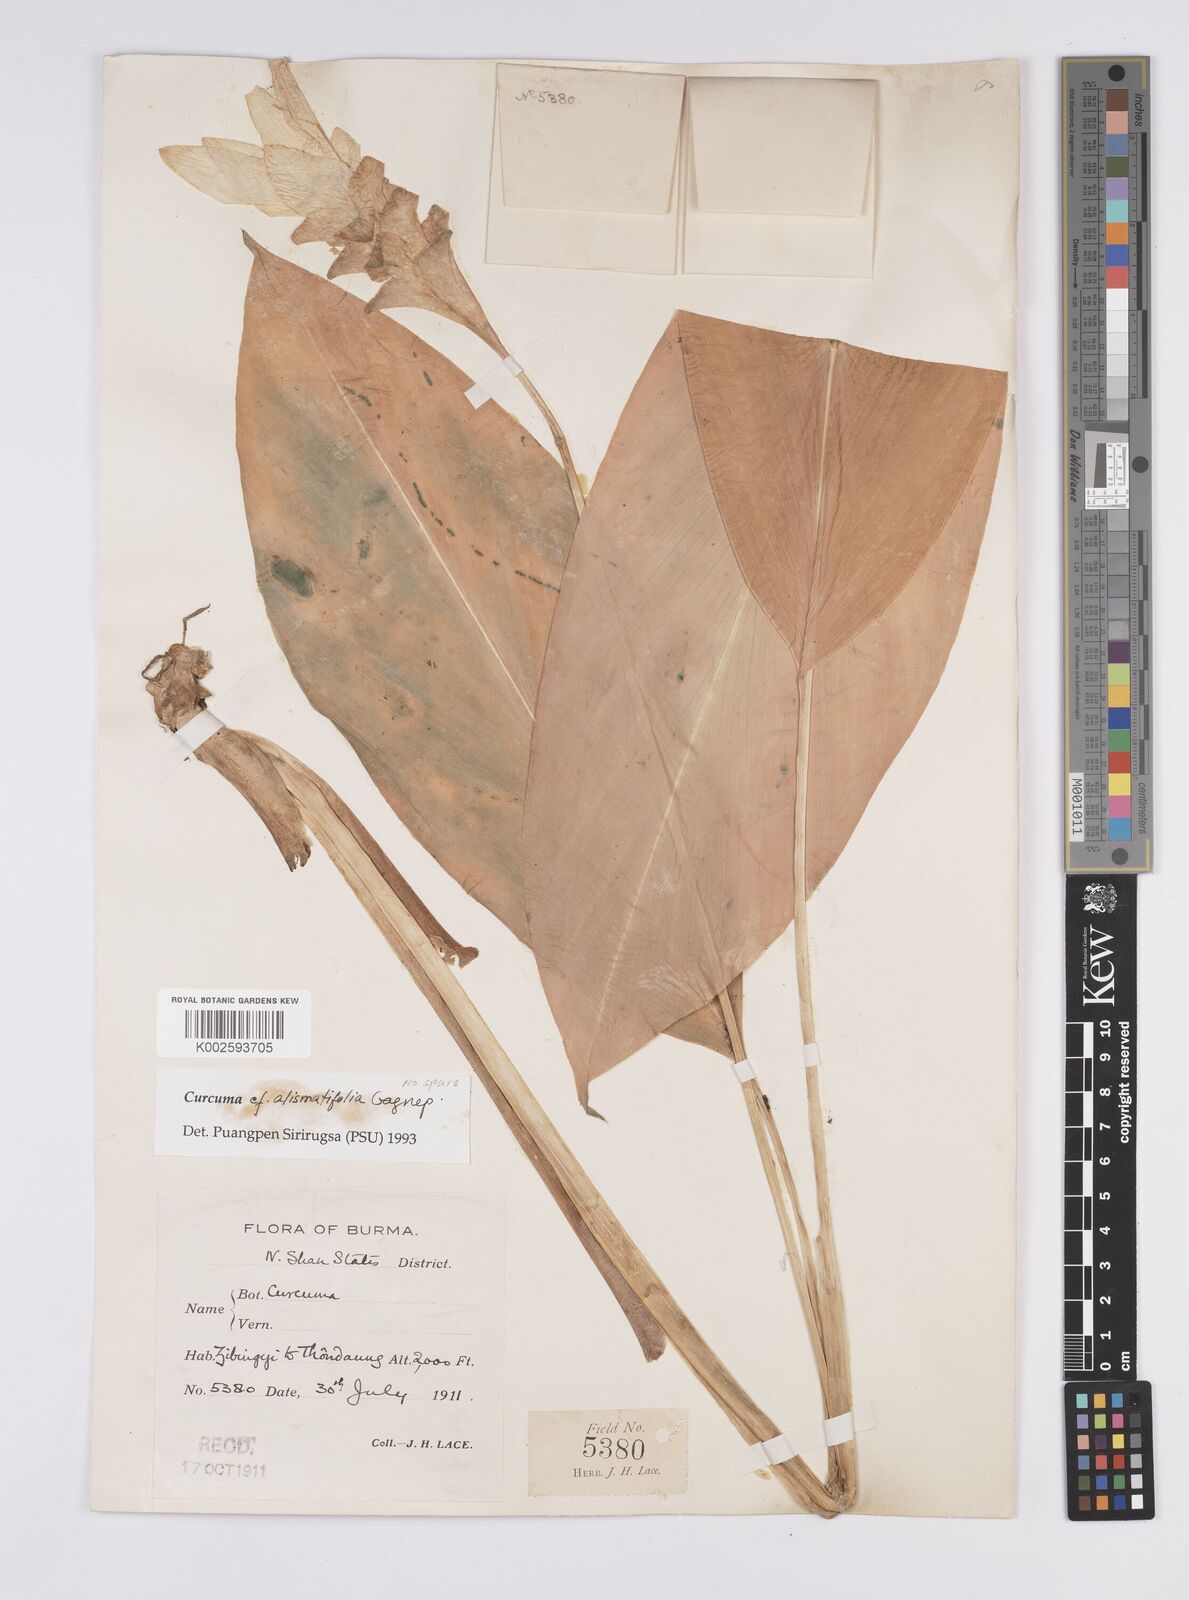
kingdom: Plantae
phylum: Tracheophyta
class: Liliopsida
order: Zingiberales
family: Zingiberaceae
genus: Curcuma
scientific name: Curcuma alismatifolia
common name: Siam tulip
